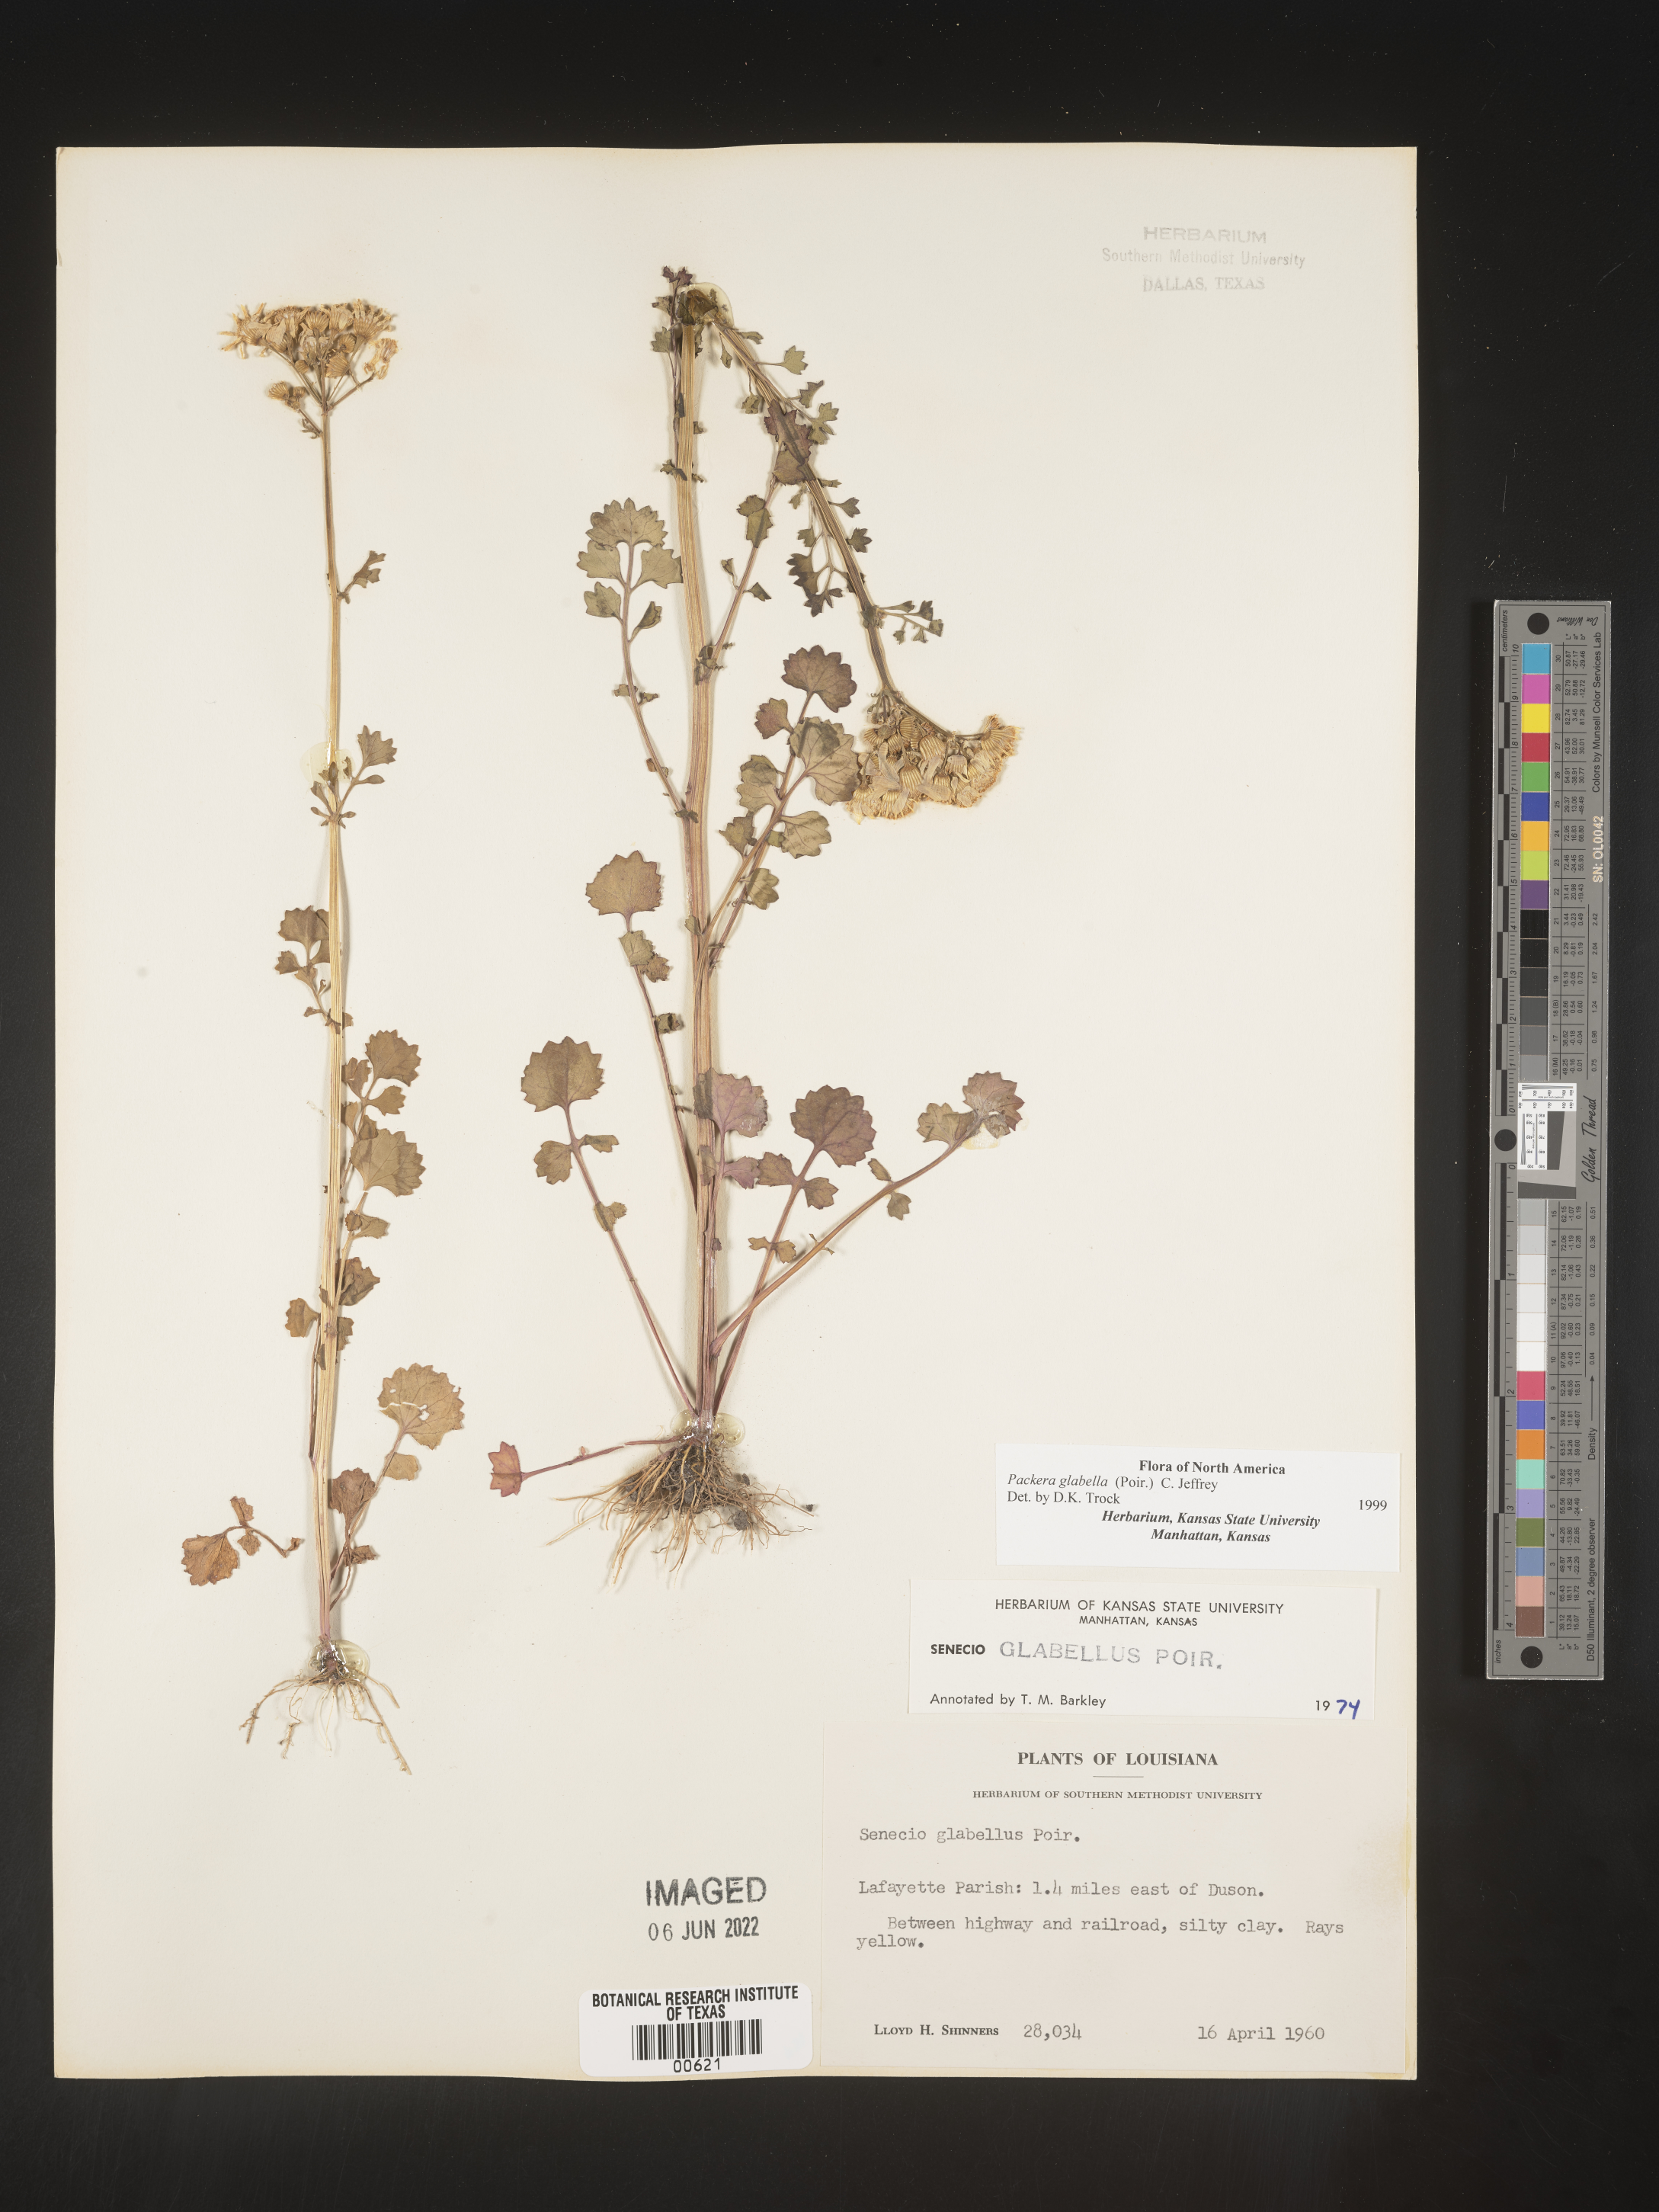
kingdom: Plantae
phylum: Tracheophyta
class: Magnoliopsida
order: Asterales
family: Asteraceae
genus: Packera
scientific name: Packera glabella
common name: Butterweed
